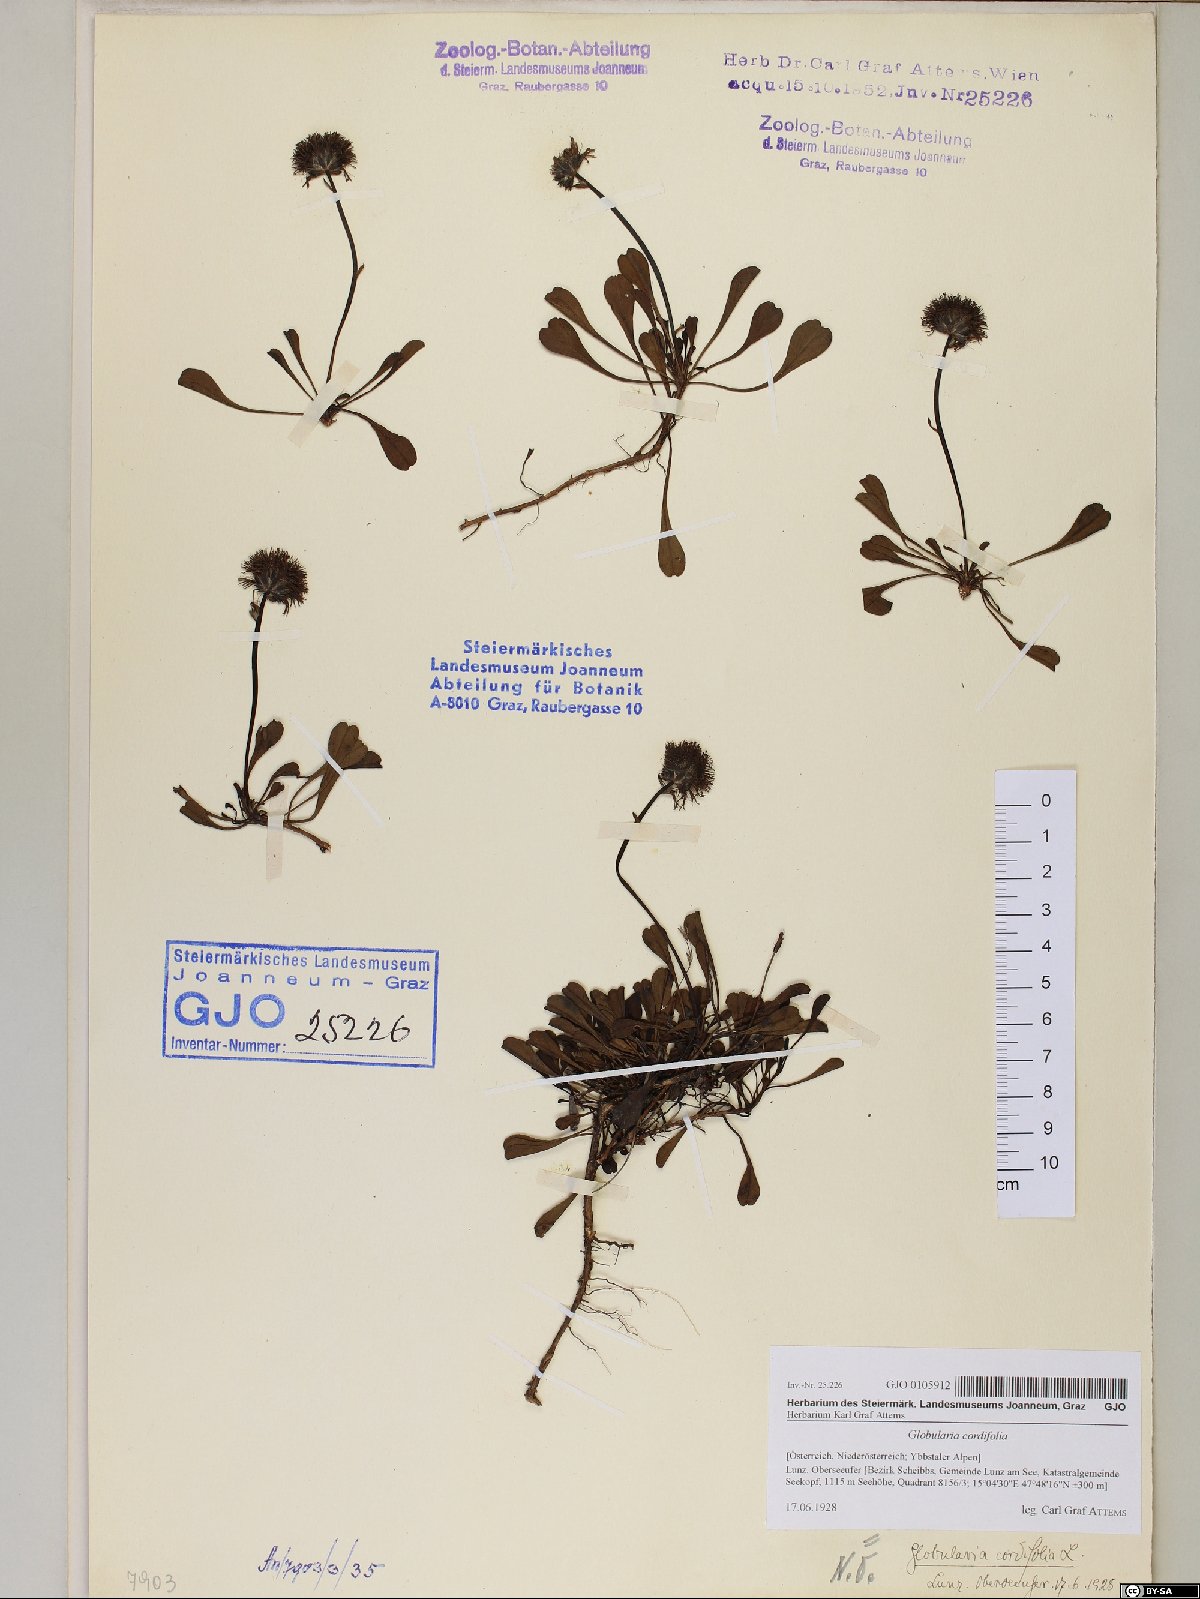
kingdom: Plantae
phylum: Tracheophyta
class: Magnoliopsida
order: Lamiales
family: Plantaginaceae
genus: Globularia
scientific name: Globularia cordifolia
